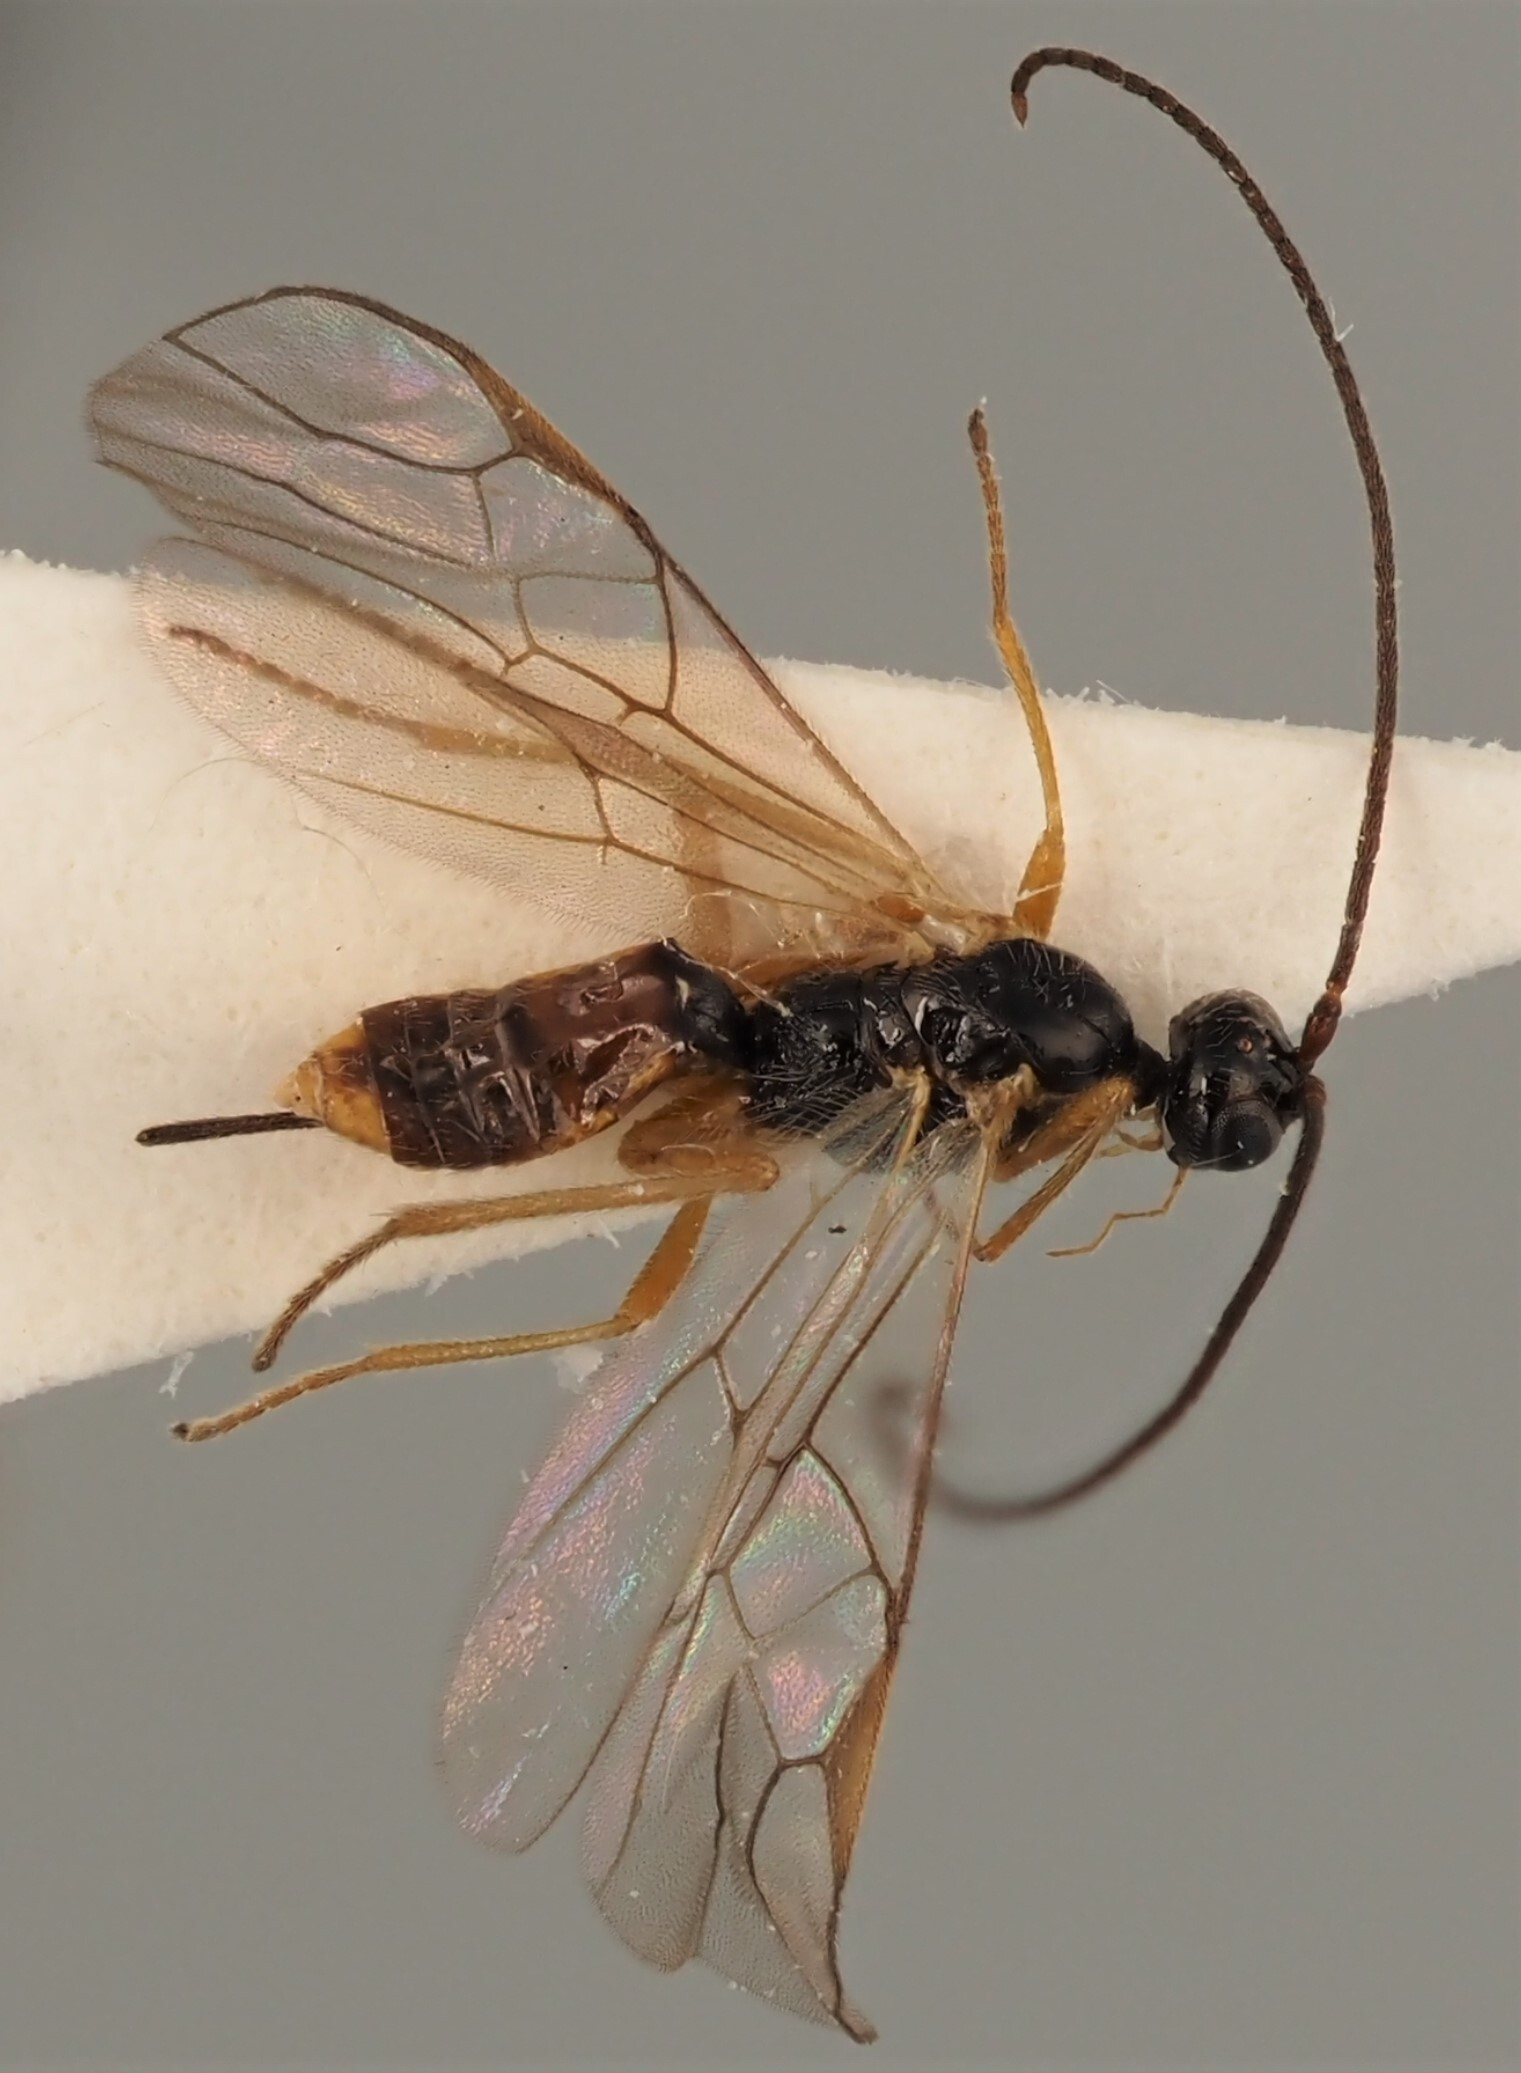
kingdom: Animalia
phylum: Arthropoda
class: Insecta
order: Hymenoptera
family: Braconidae
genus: Rhysipolis
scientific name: Rhysipolis decorator
